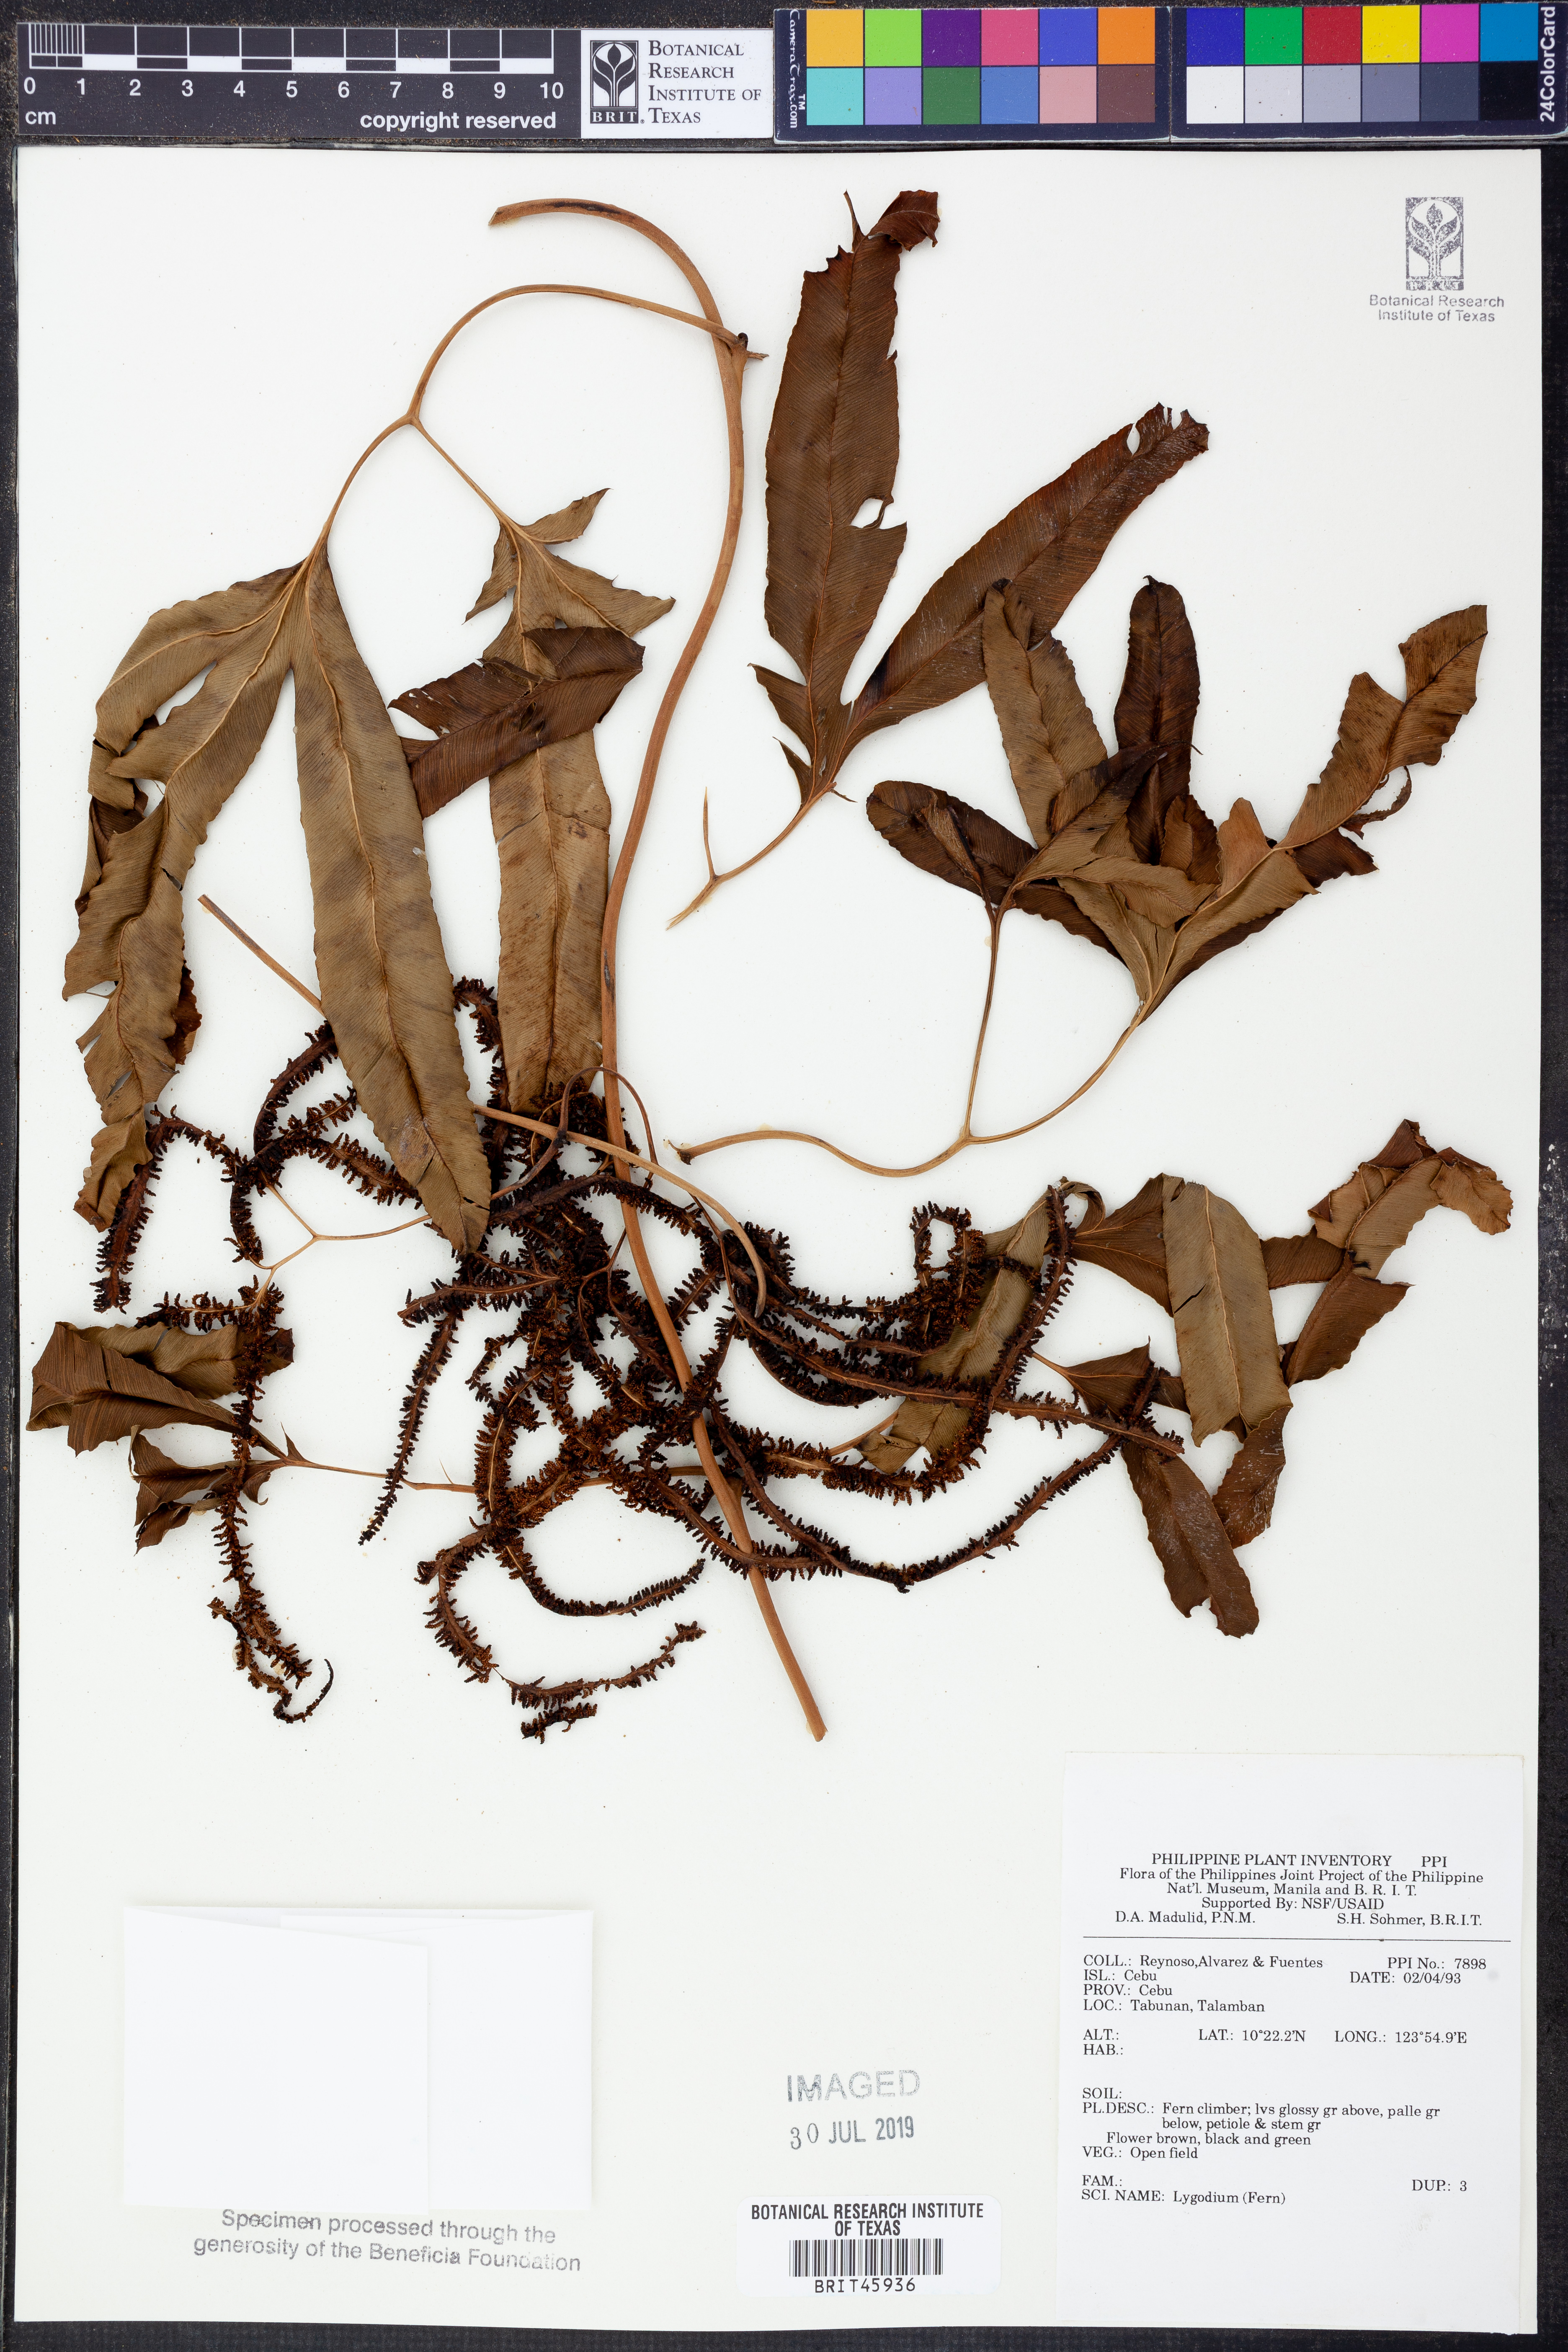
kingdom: Plantae
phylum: Tracheophyta
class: Polypodiopsida
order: Schizaeales
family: Lygodiaceae
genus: Lygodium
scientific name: Lygodium
